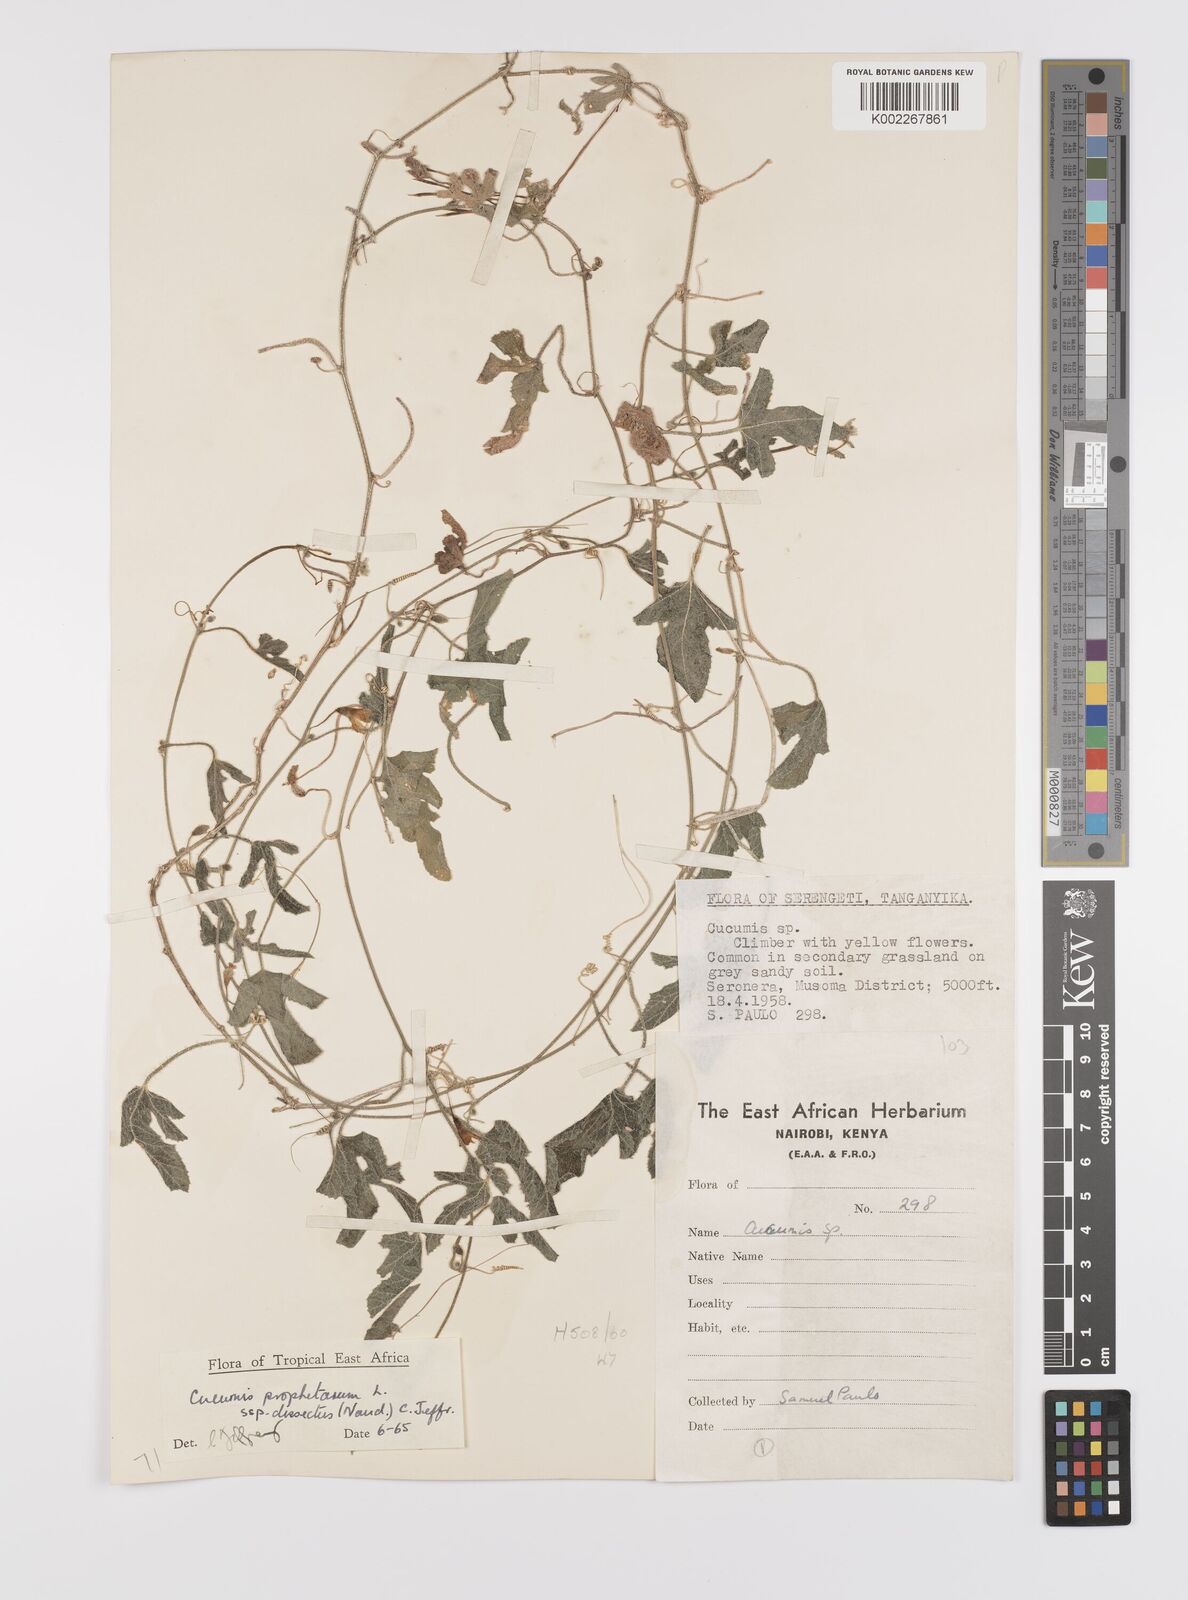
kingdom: Plantae
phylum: Tracheophyta
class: Magnoliopsida
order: Cucurbitales
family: Cucurbitaceae
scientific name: Cucurbitaceae
